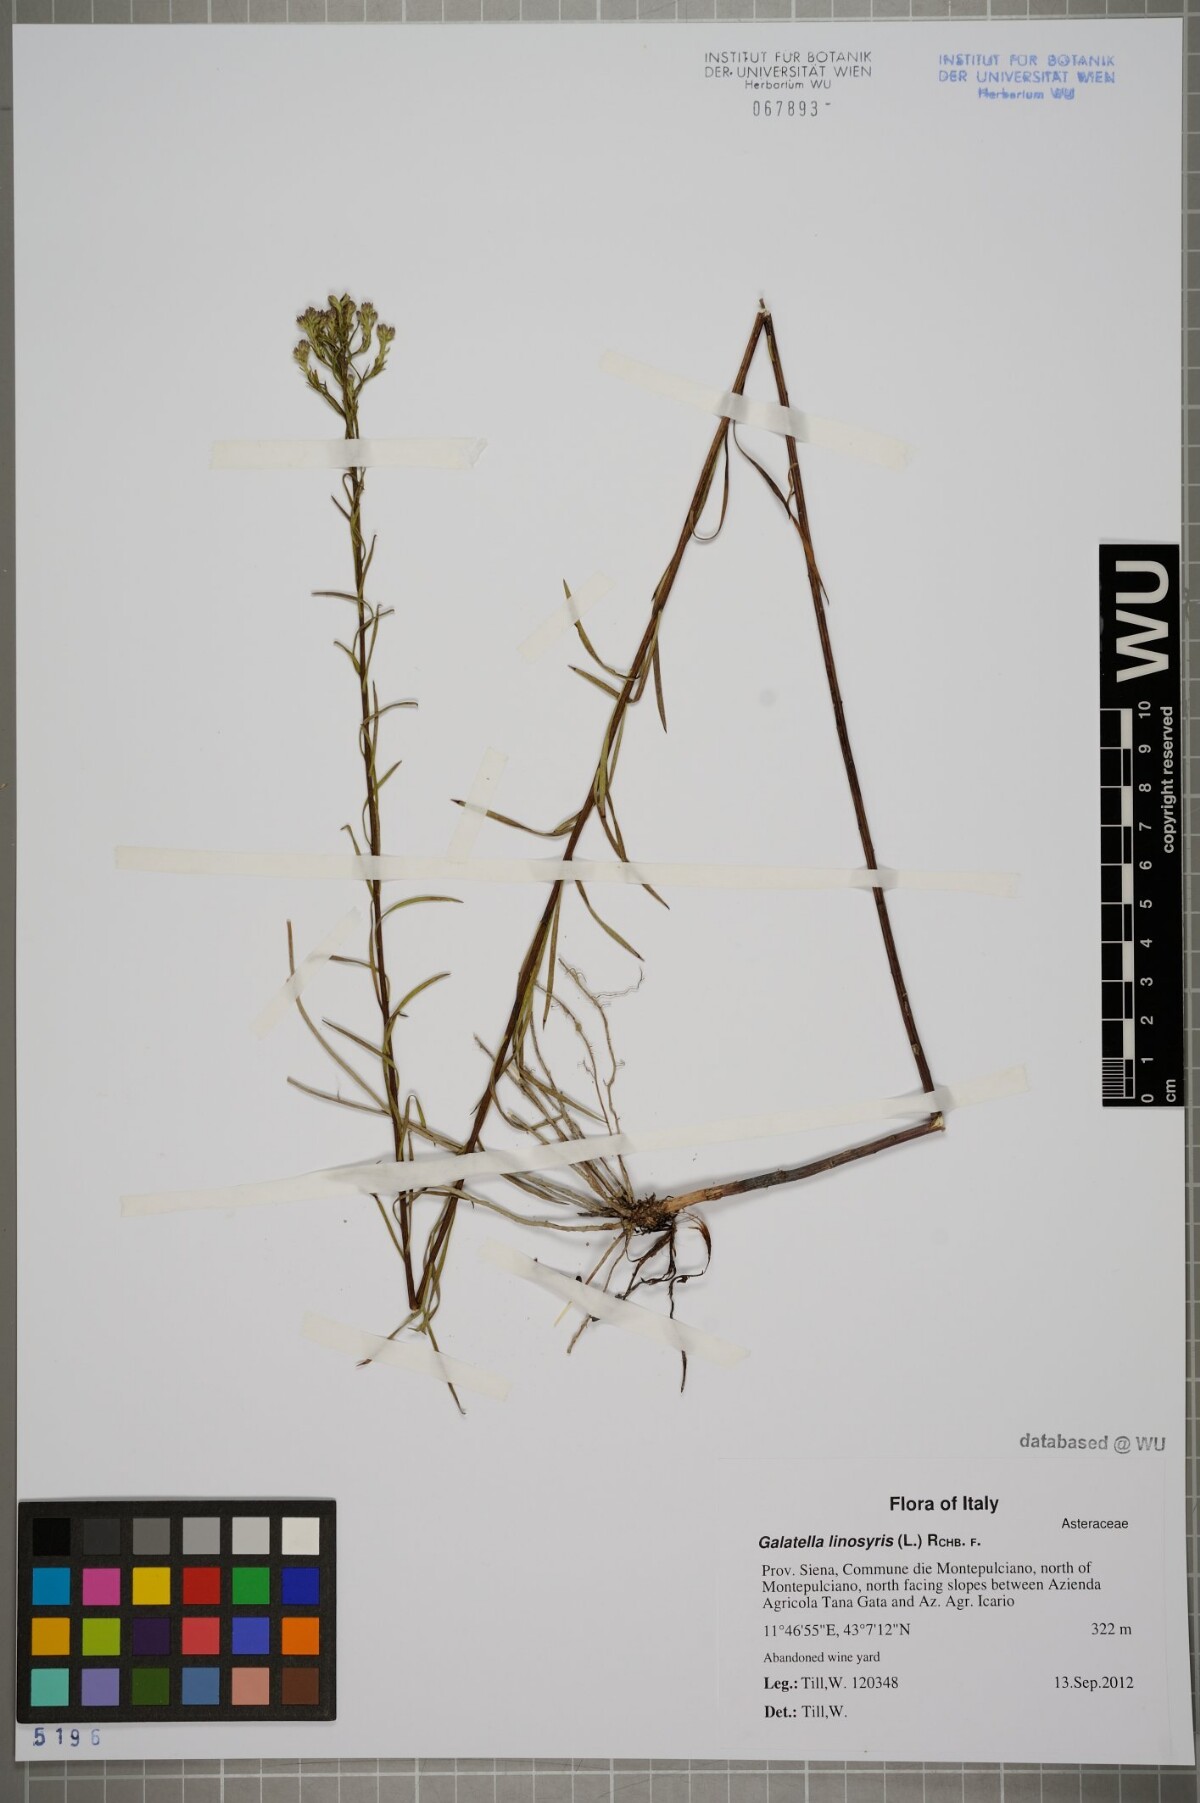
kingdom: Plantae
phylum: Tracheophyta
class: Magnoliopsida
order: Asterales
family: Asteraceae
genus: Galatella
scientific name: Galatella linosyris
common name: Goldilocks aster
